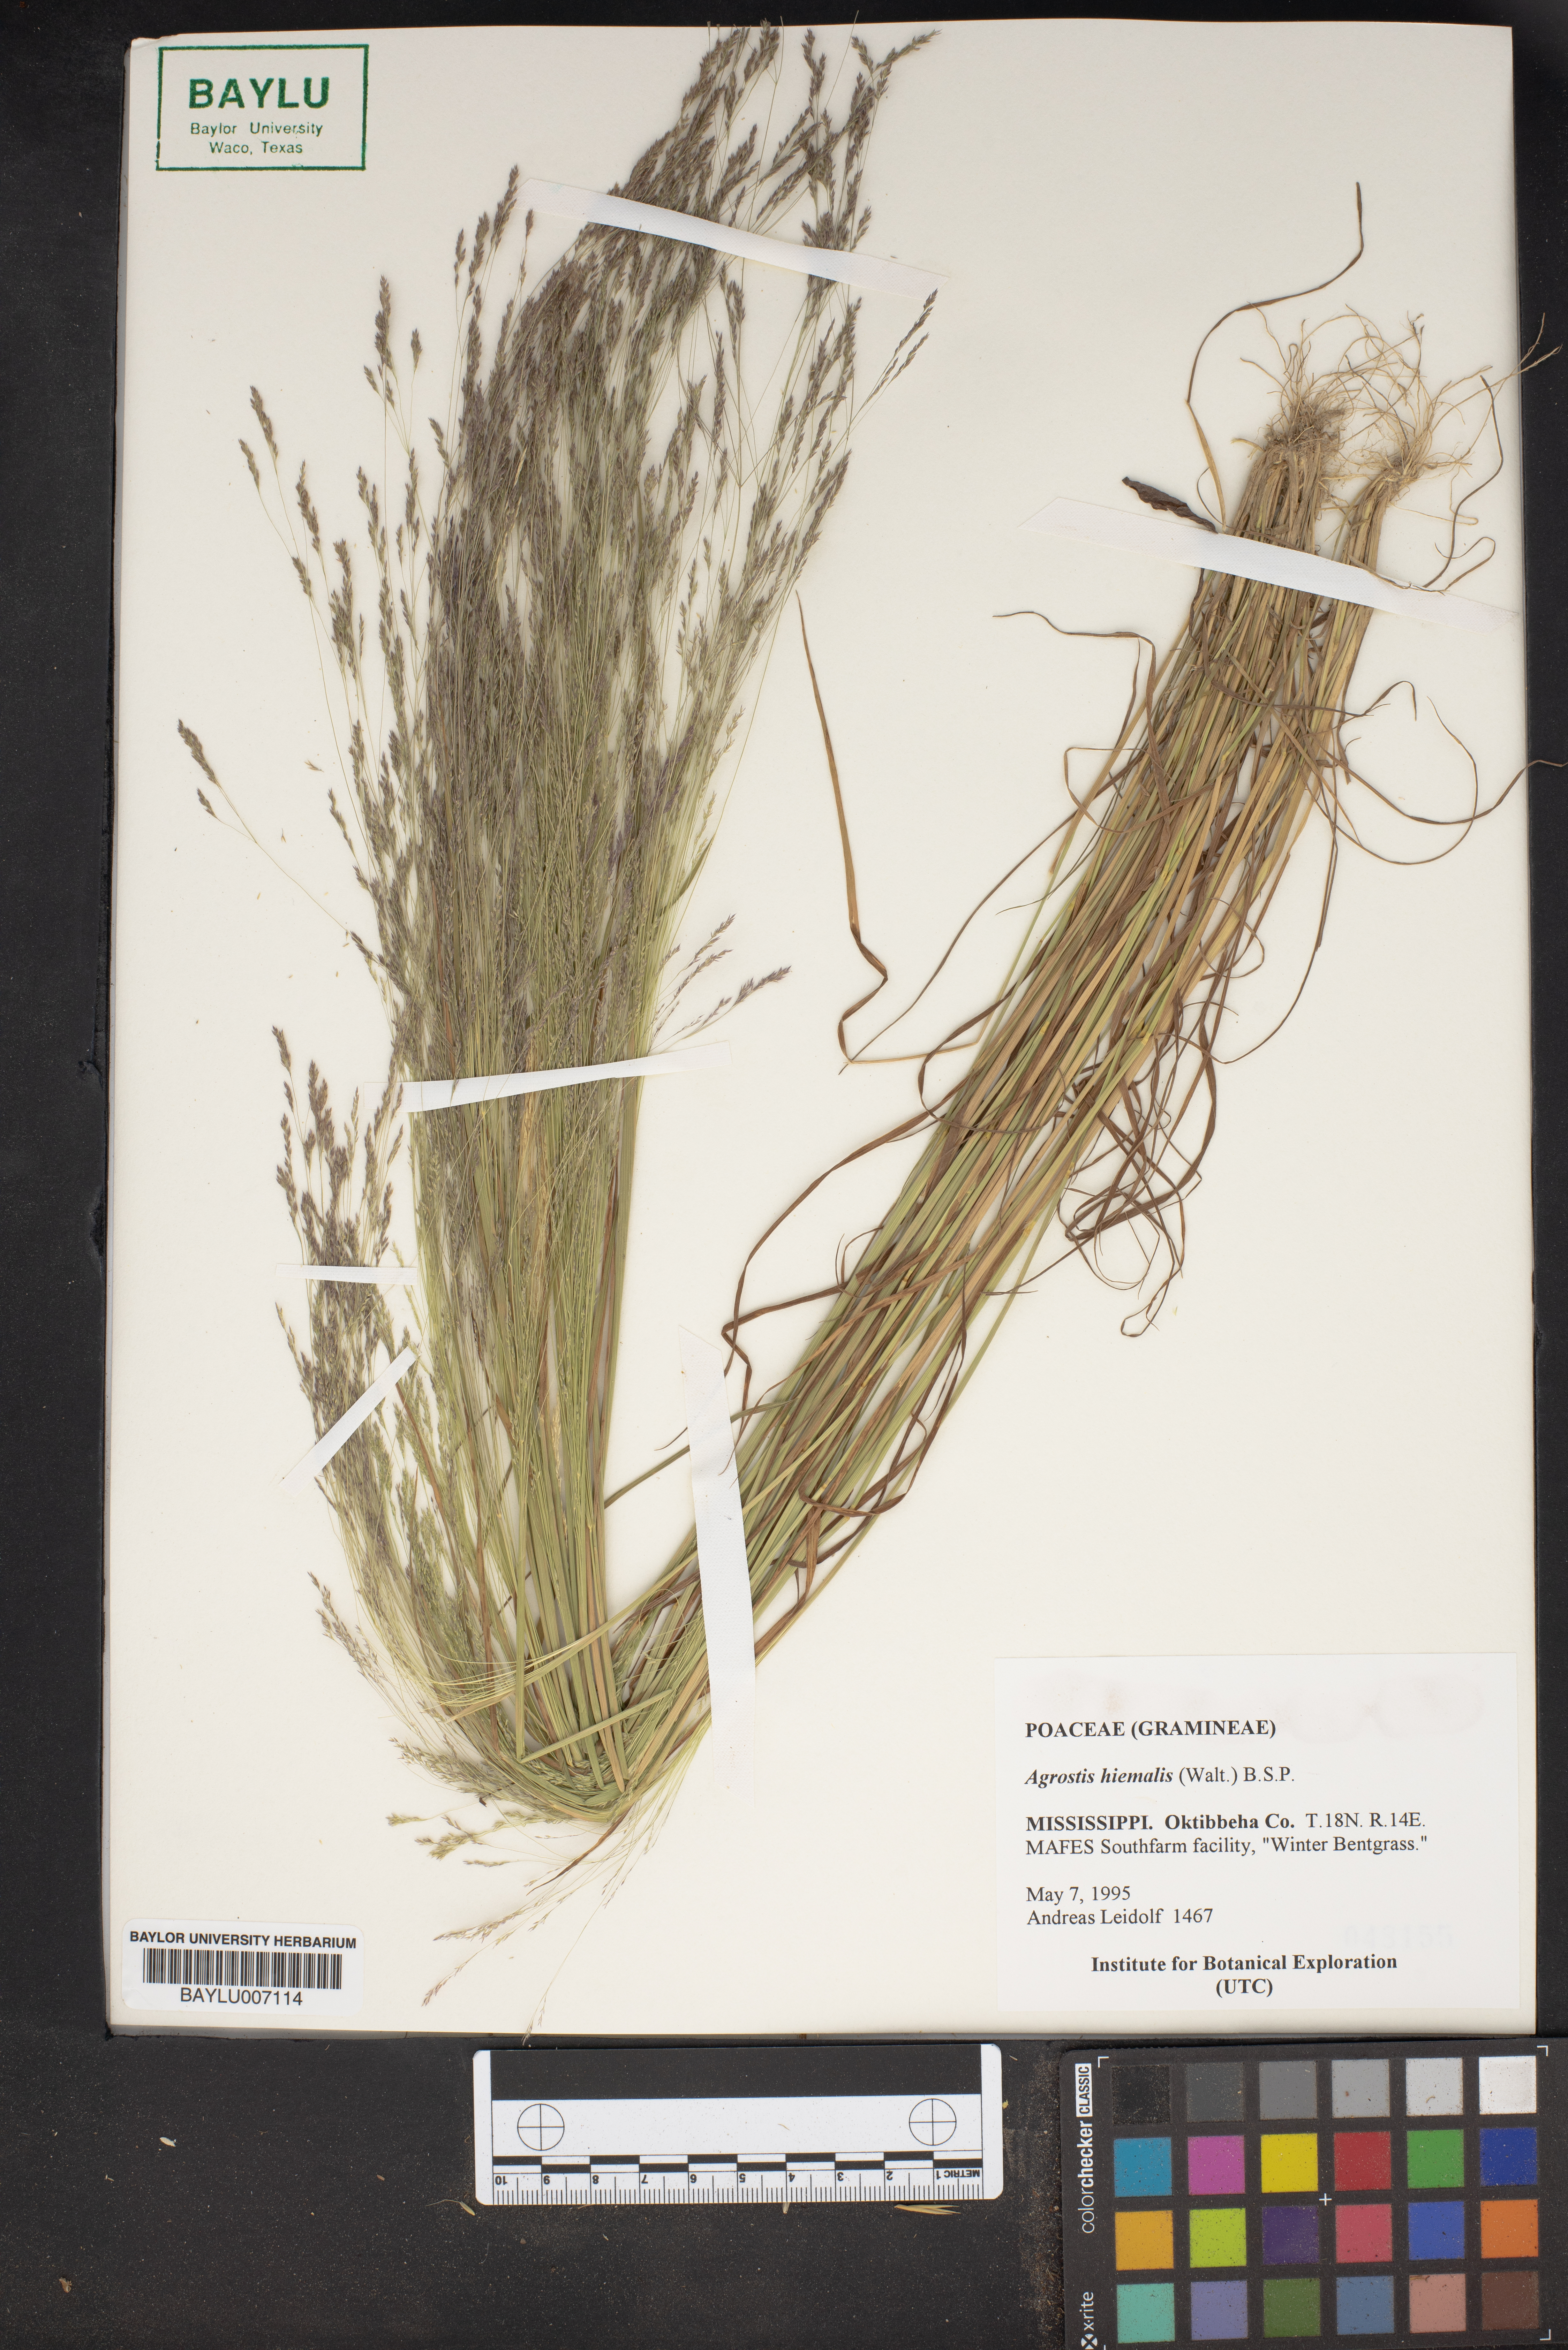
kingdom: Plantae
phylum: Tracheophyta
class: Liliopsida
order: Poales
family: Poaceae
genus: Agrostis
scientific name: Agrostis hyemalis
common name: Small bent
